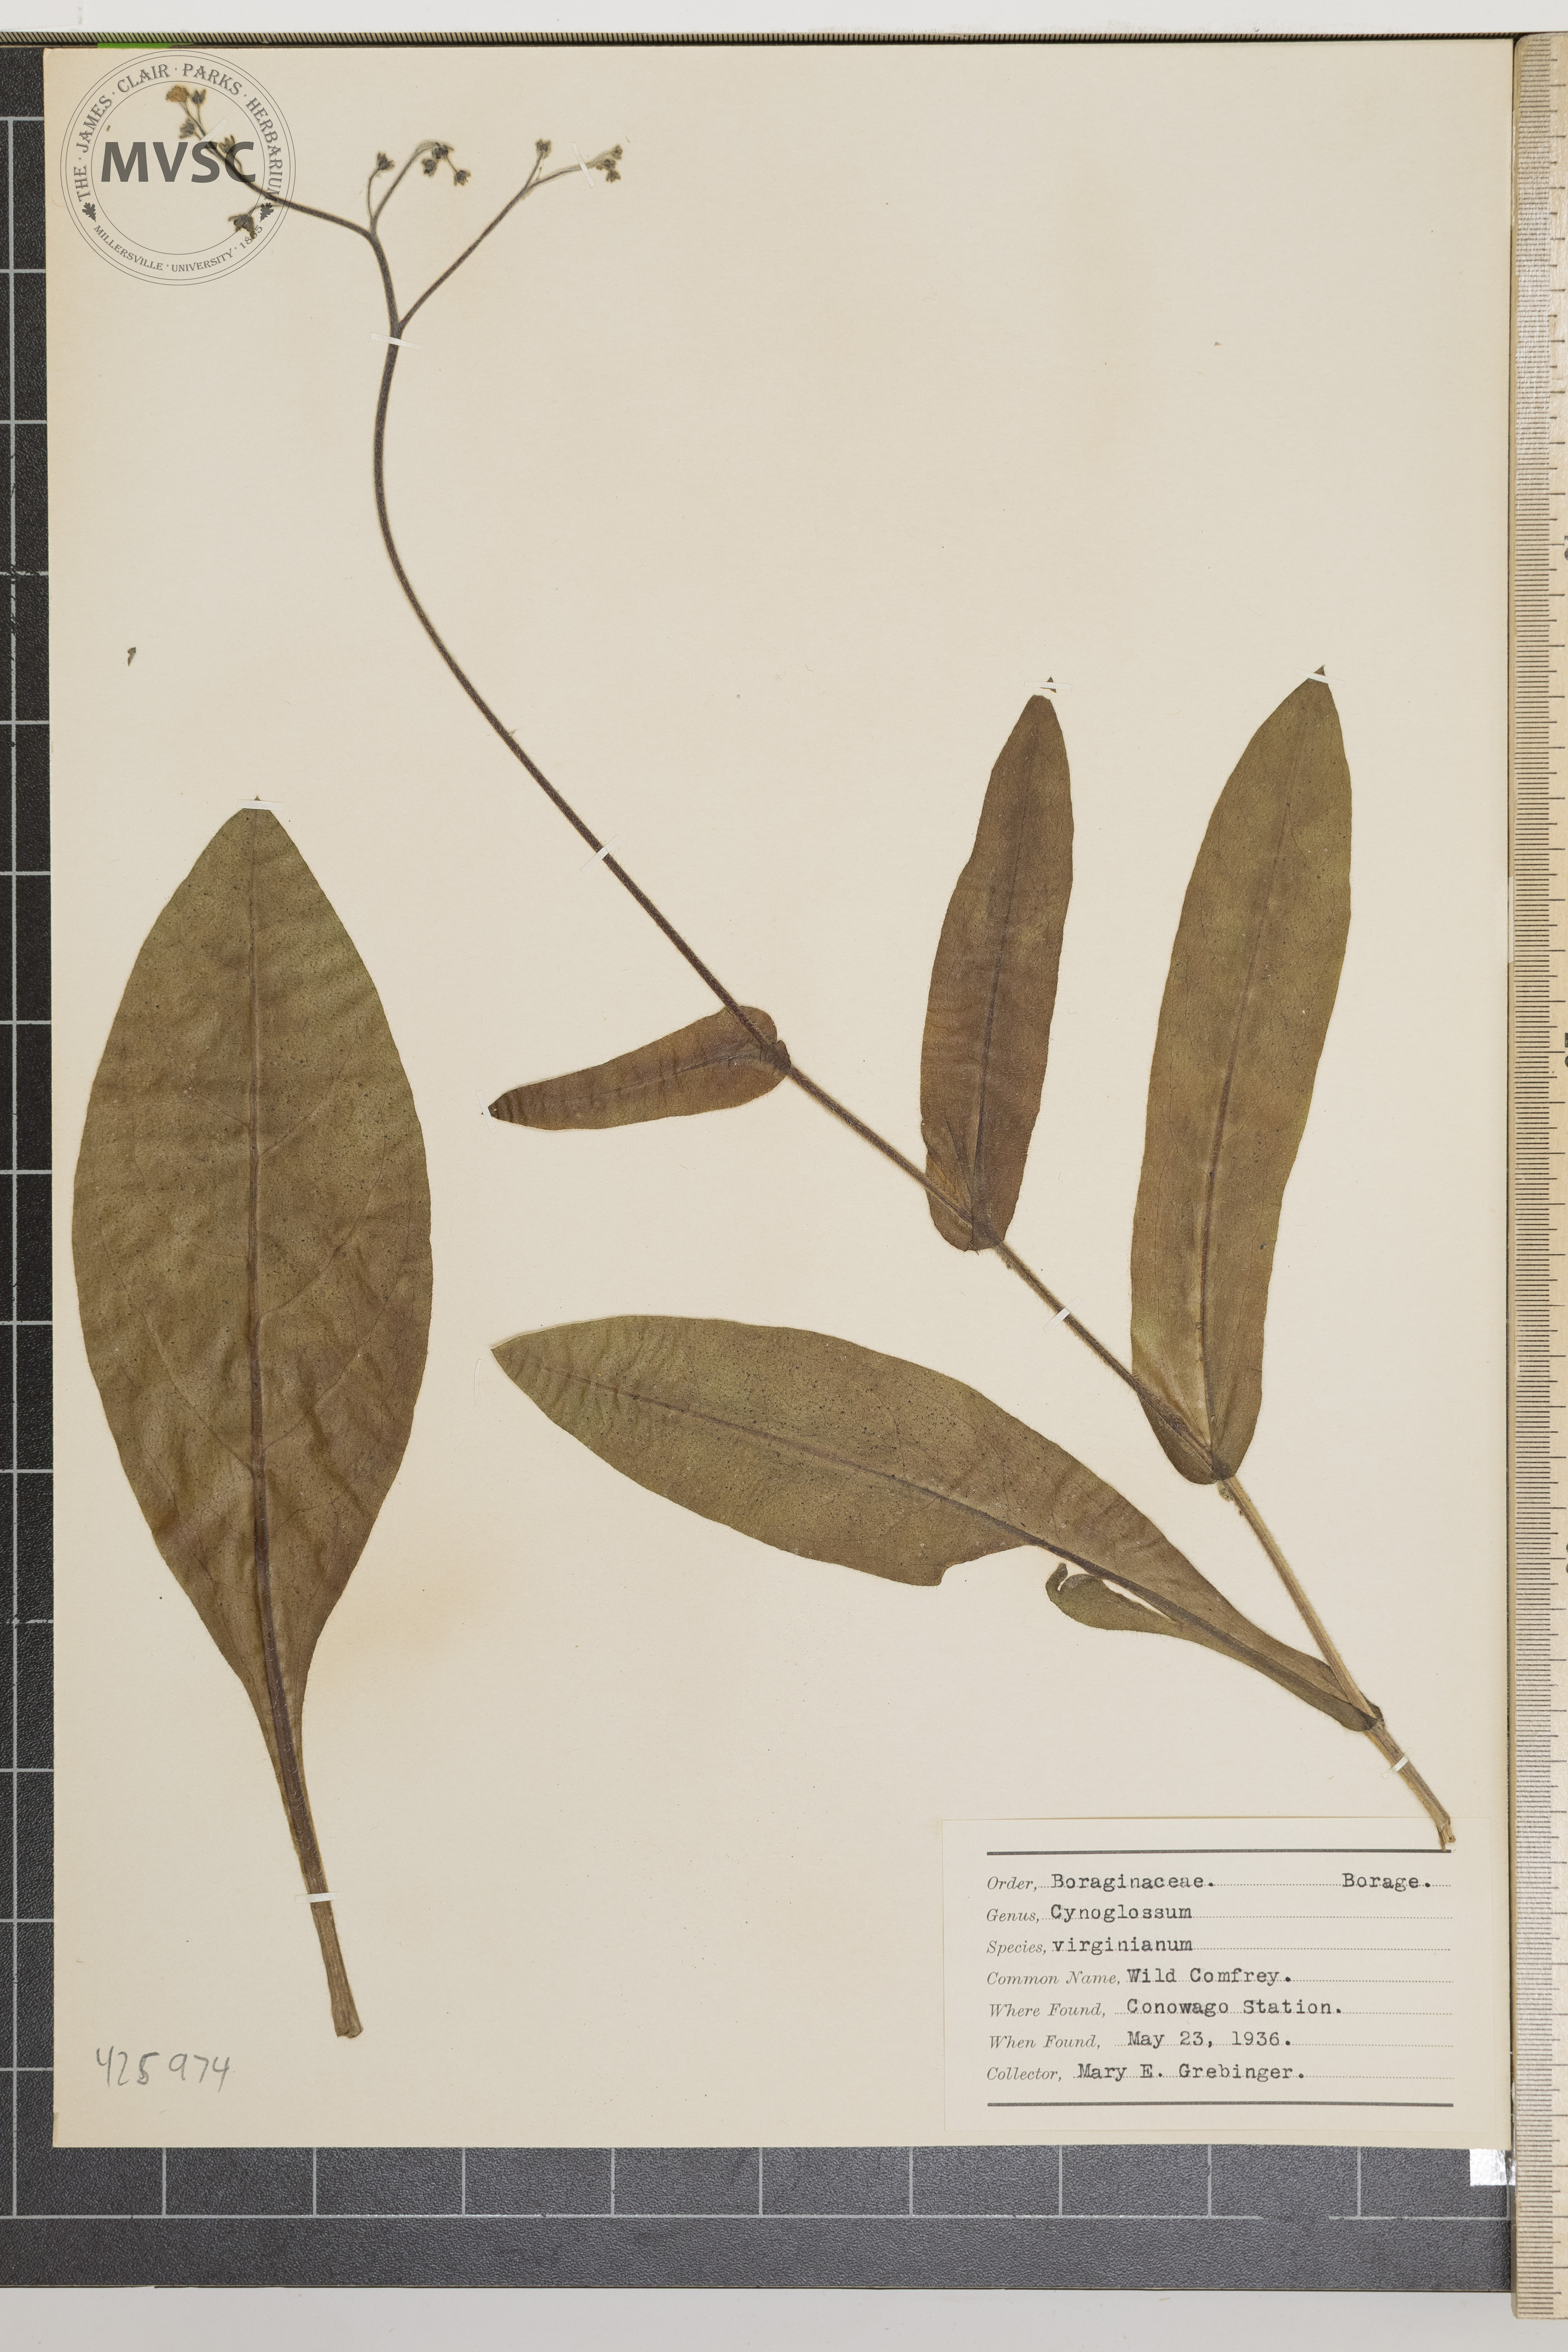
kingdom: Plantae
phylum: Tracheophyta
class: Magnoliopsida
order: Boraginales
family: Boraginaceae
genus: Andersonglossum
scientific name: Andersonglossum virginianum
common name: Wild comfrey
